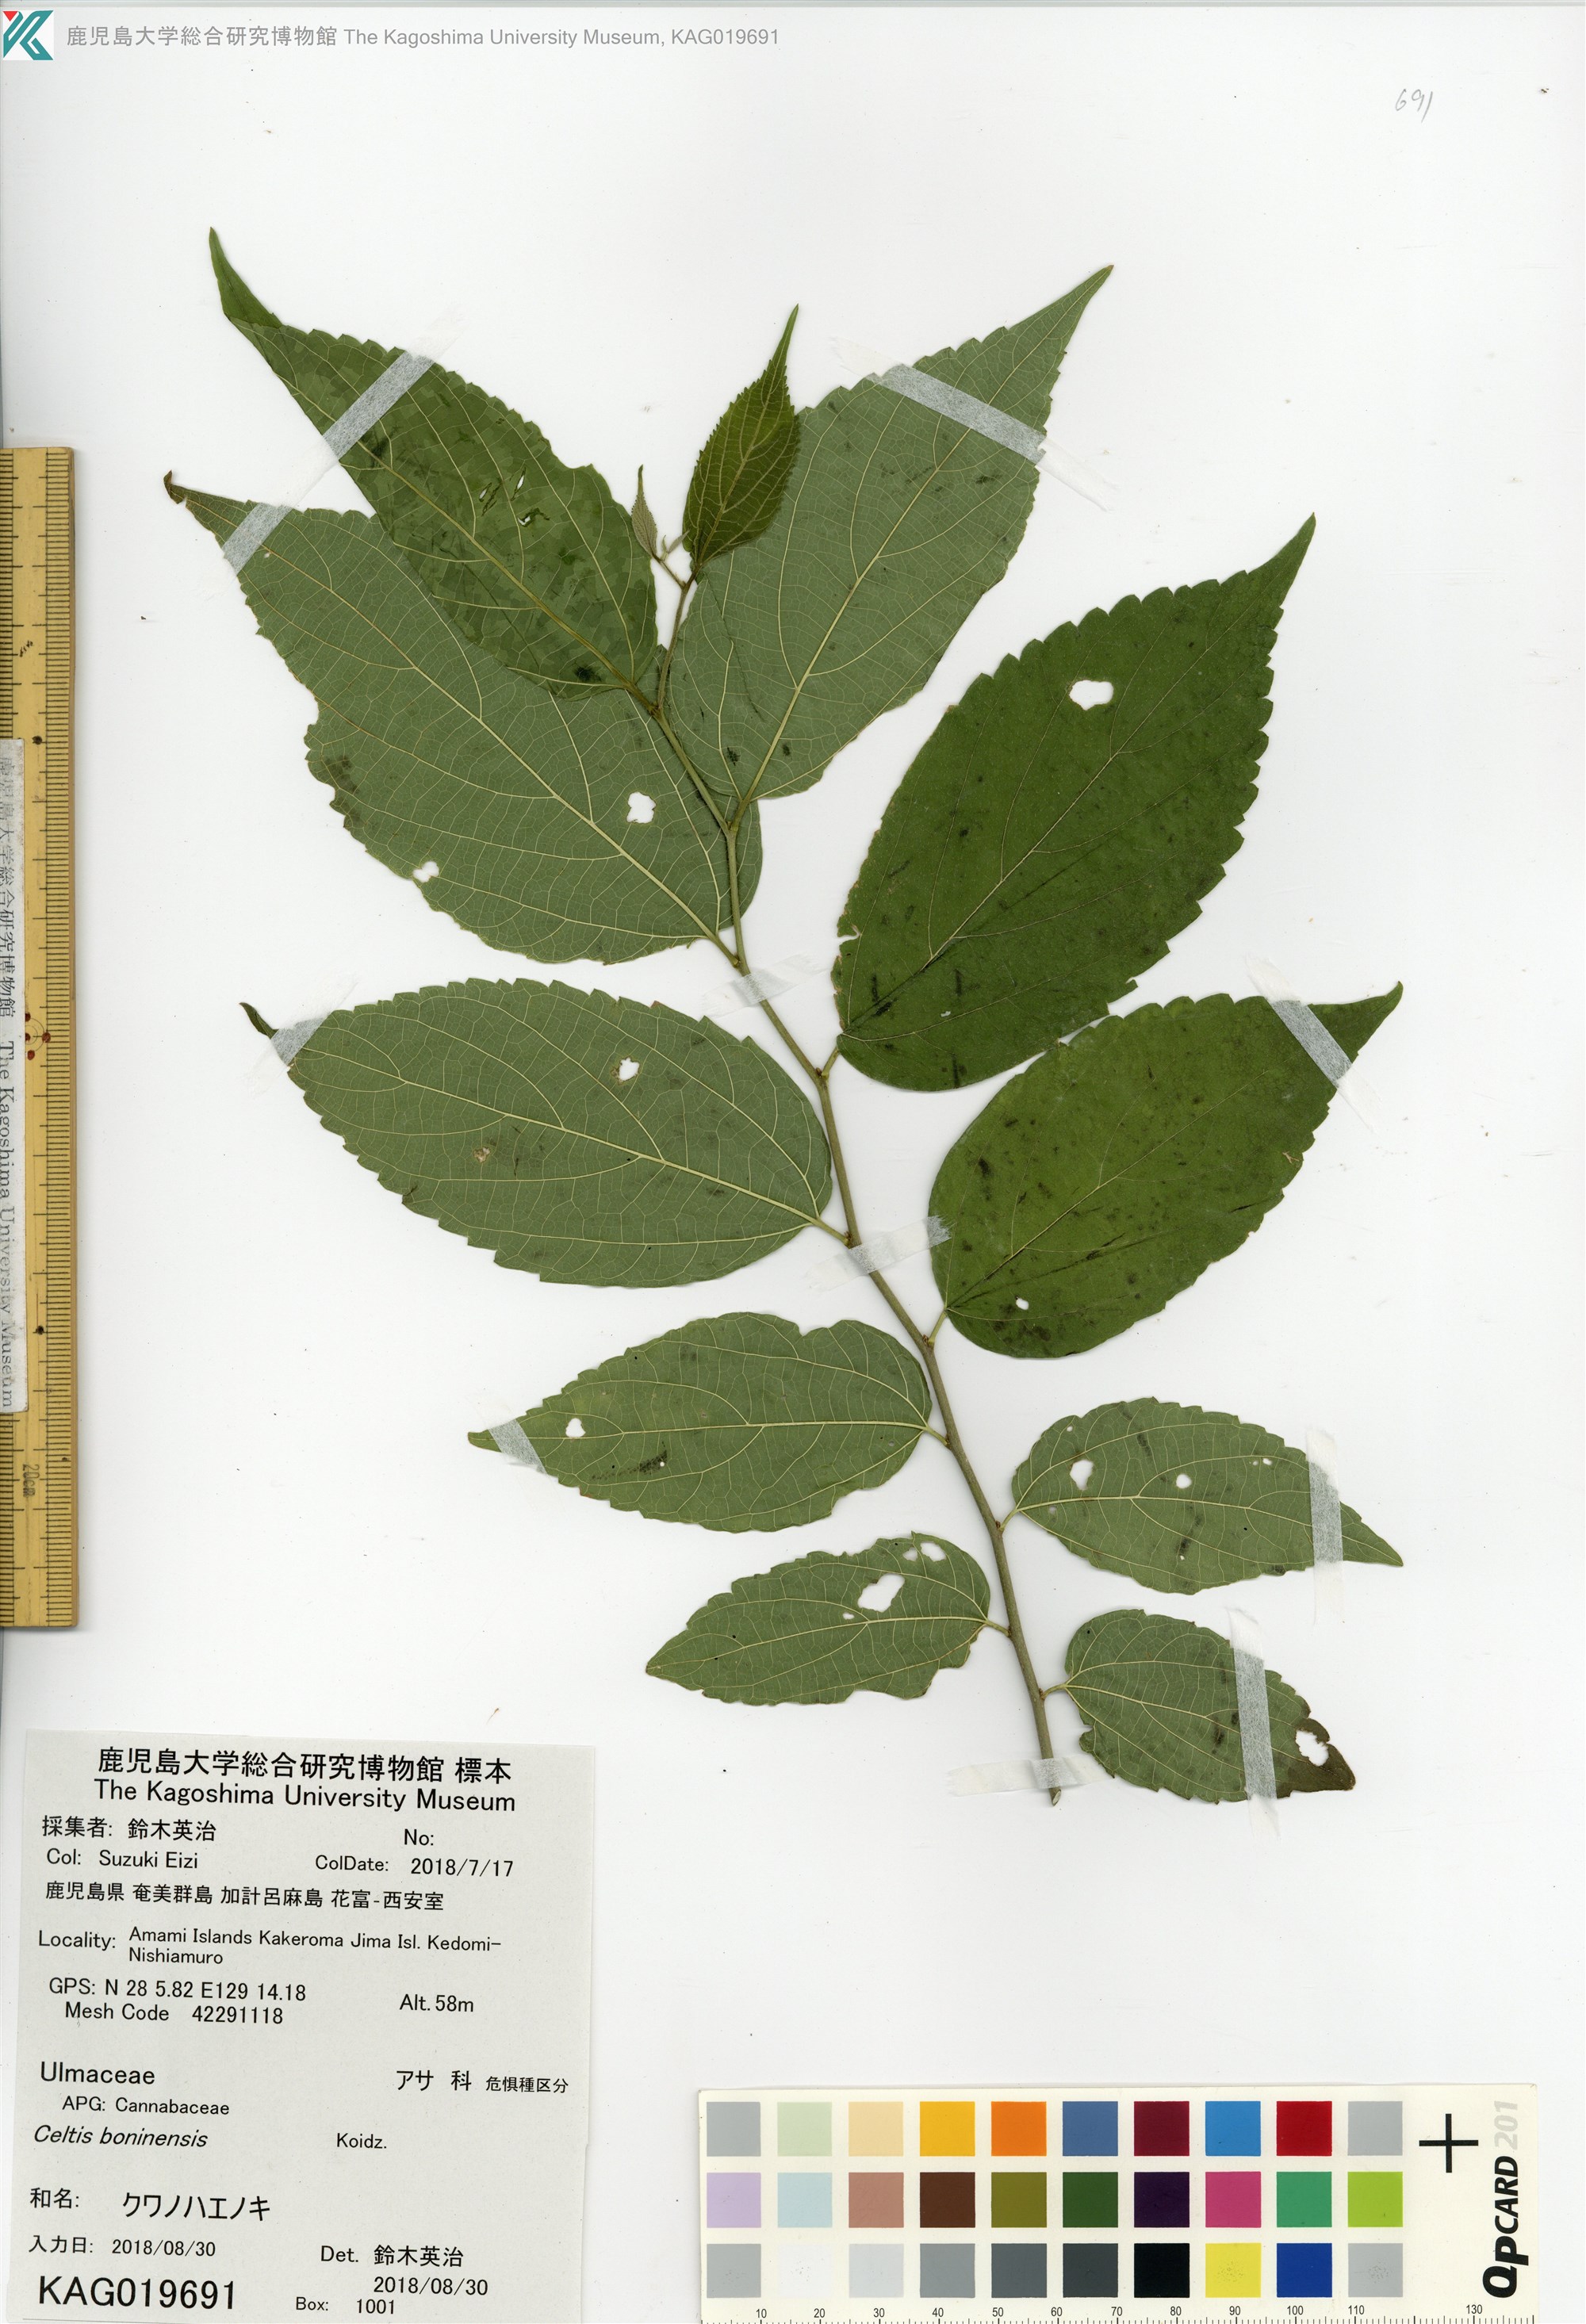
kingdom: Plantae
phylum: Tracheophyta
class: Magnoliopsida
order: Rosales
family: Cannabaceae
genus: Celtis
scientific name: Celtis boninensis
